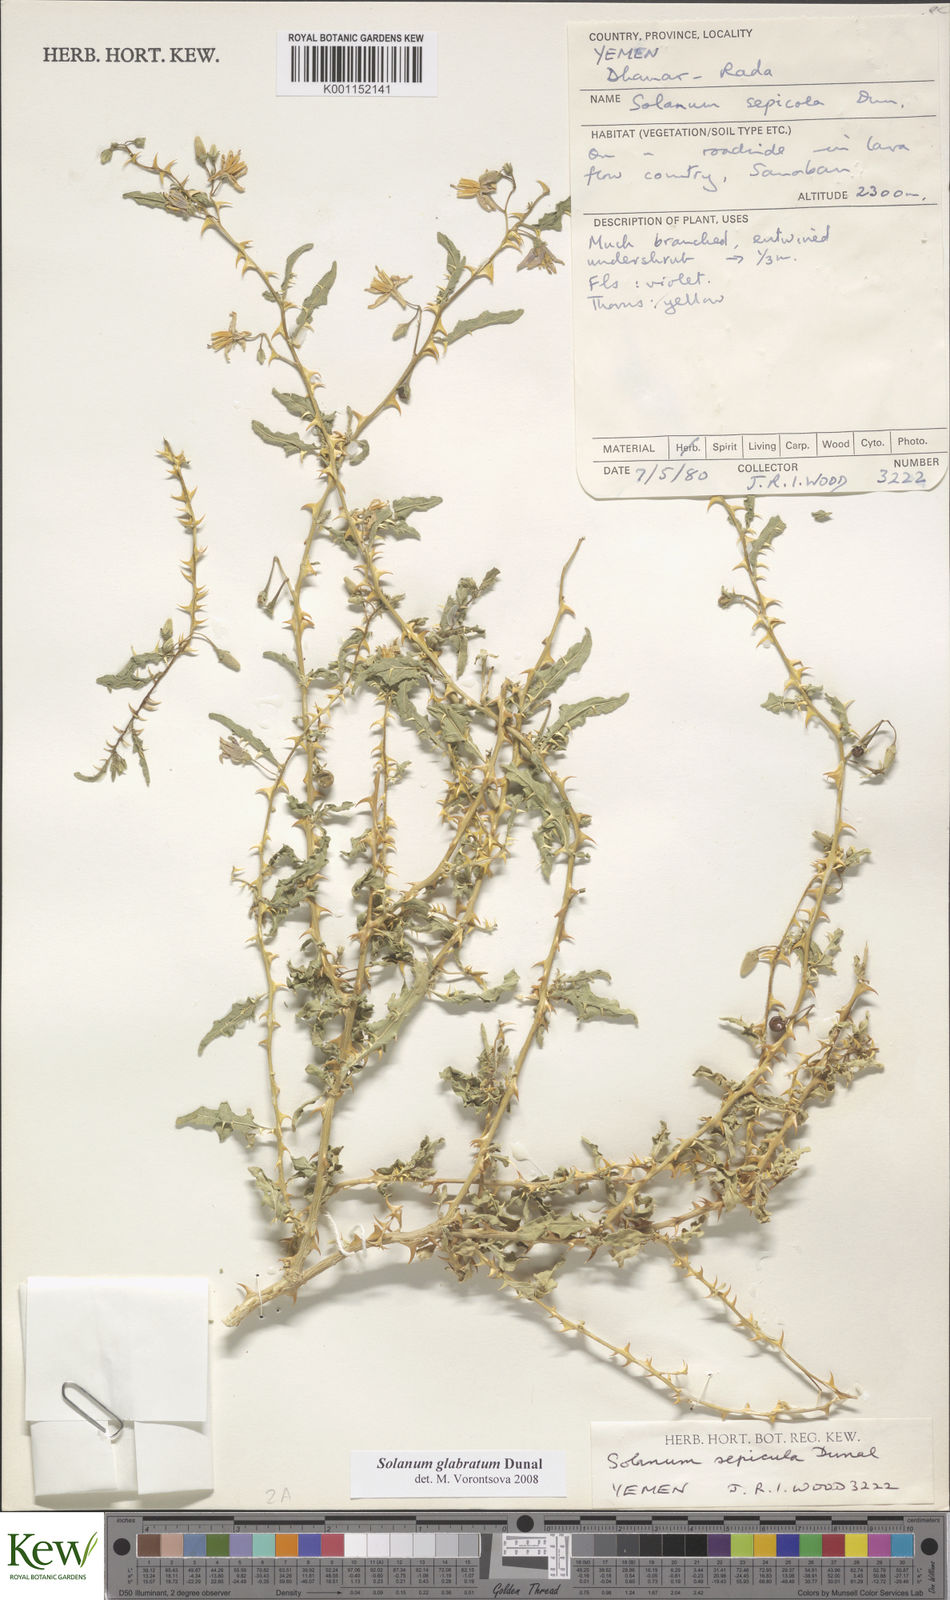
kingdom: Plantae
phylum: Tracheophyta
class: Magnoliopsida
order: Solanales
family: Solanaceae
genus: Solanum
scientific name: Solanum glabratum
